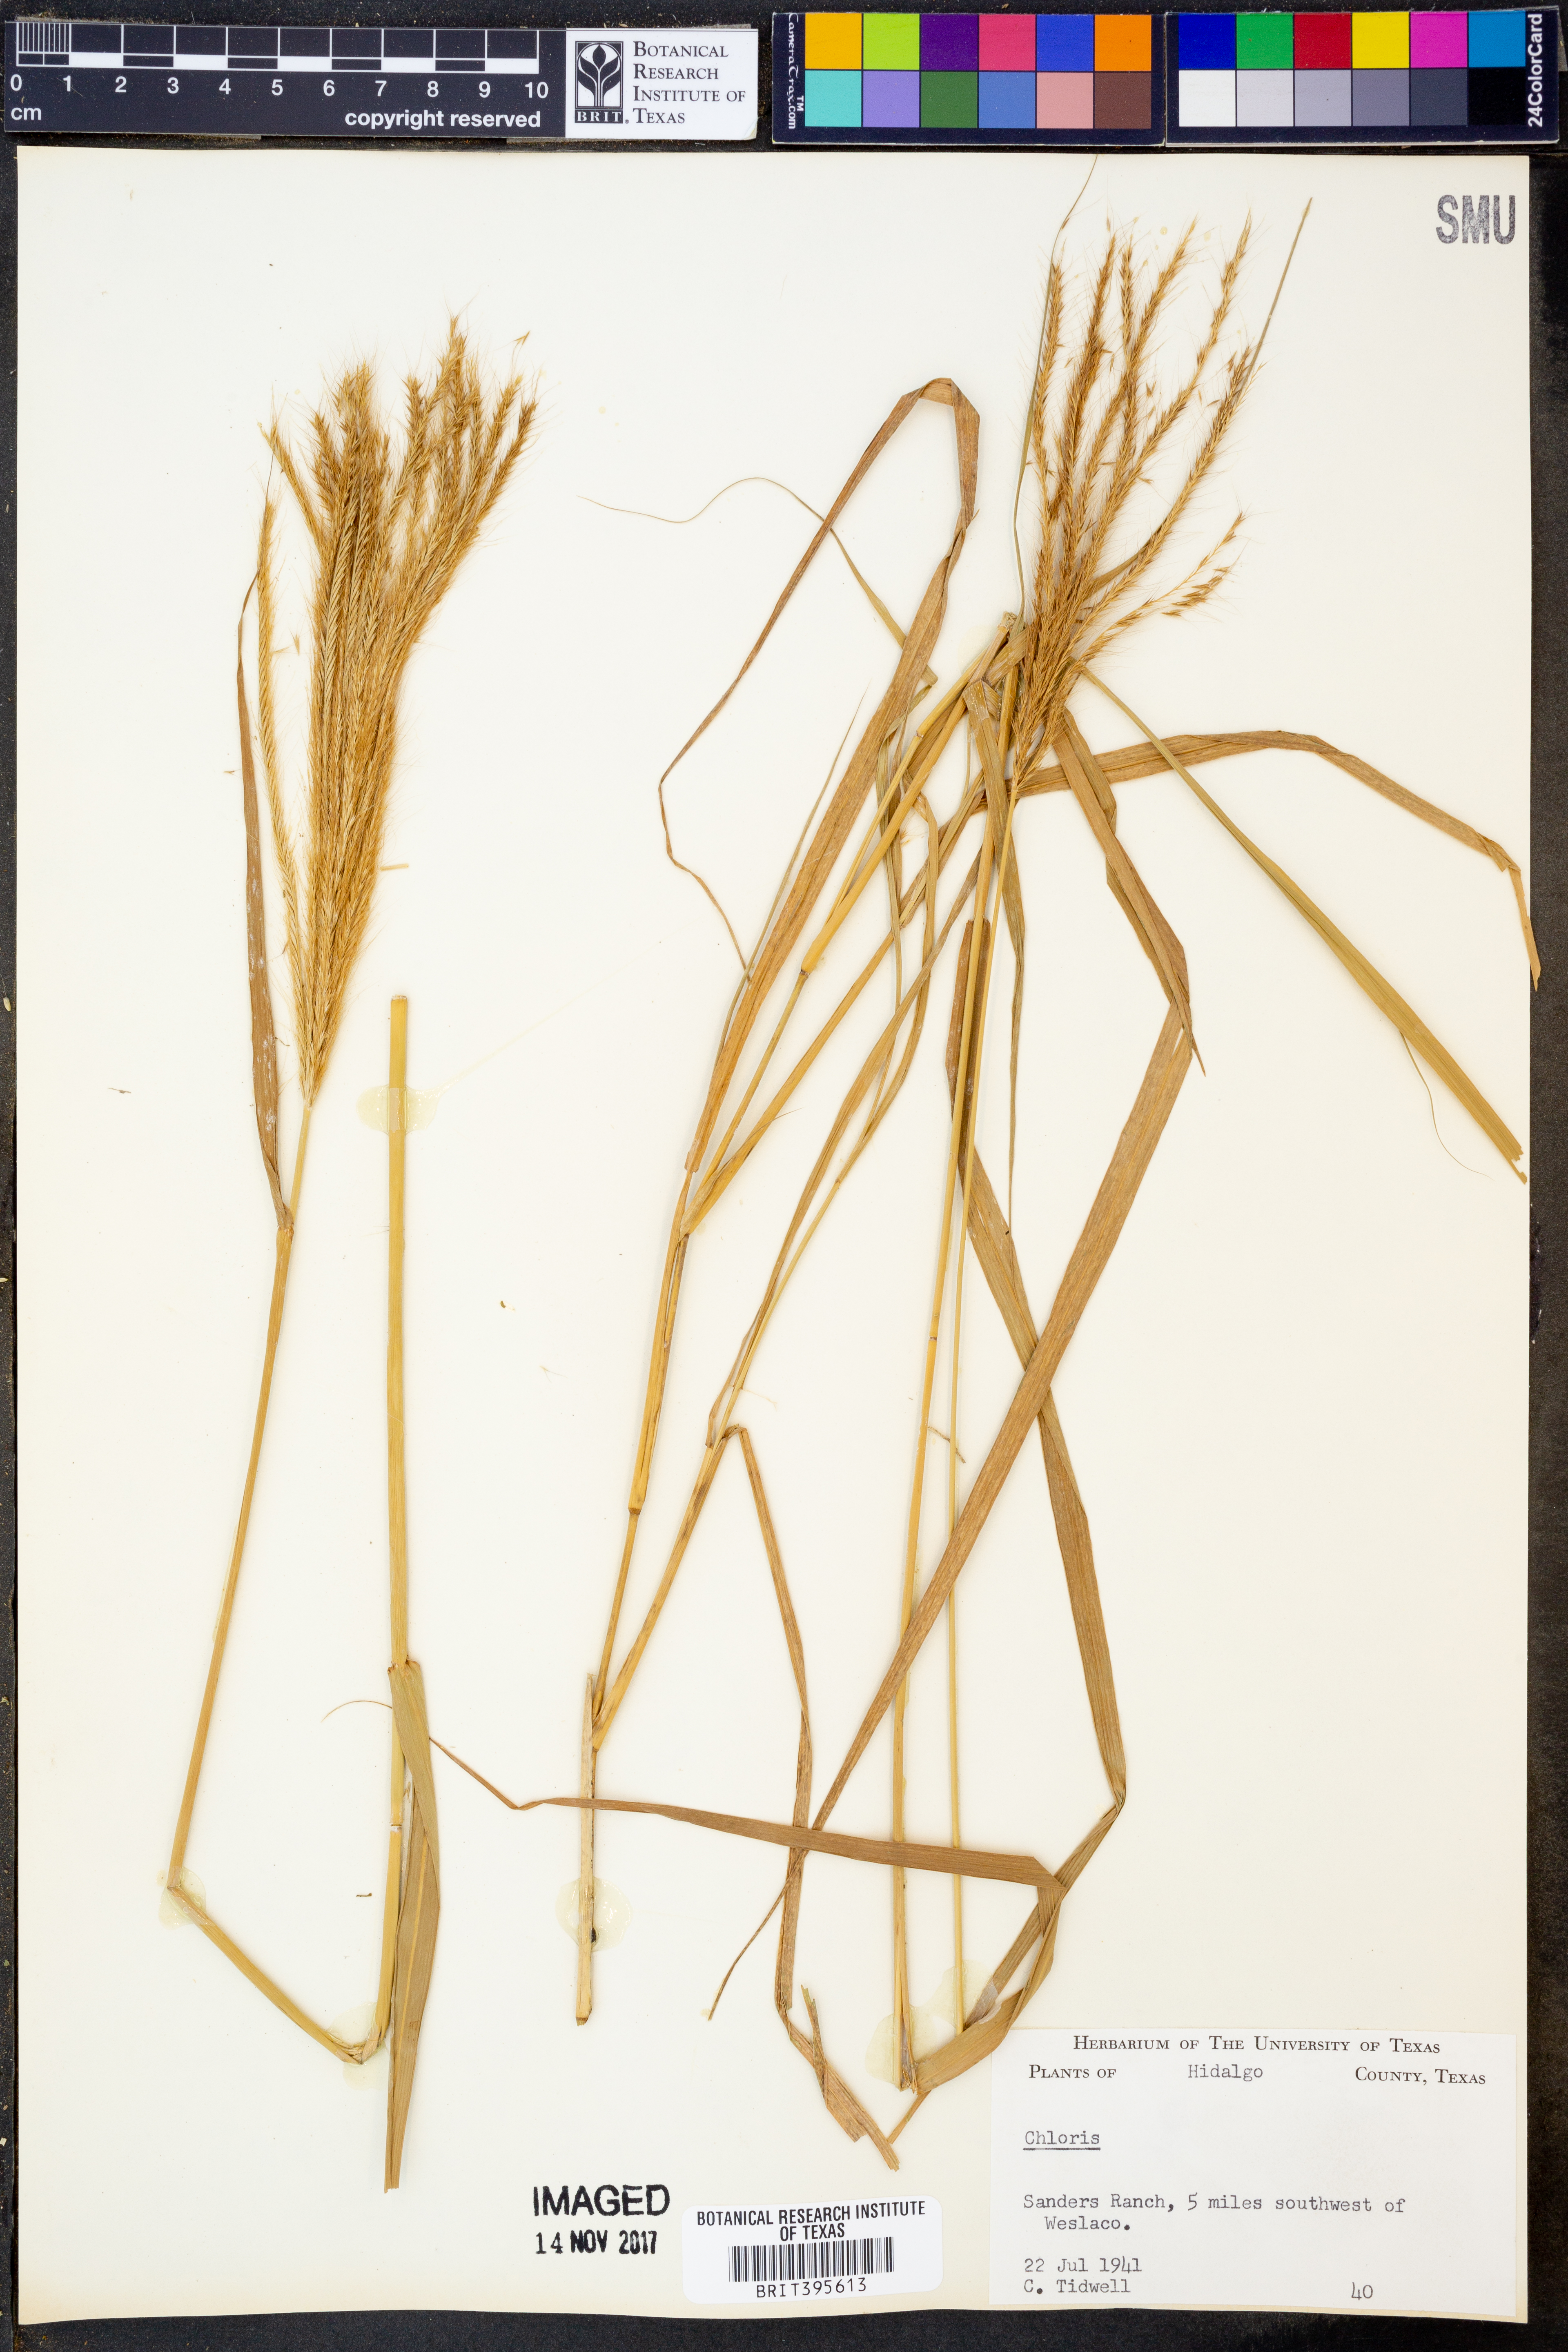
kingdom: Plantae
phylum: Tracheophyta
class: Liliopsida
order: Poales
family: Poaceae
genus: Chloris
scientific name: Chloris
